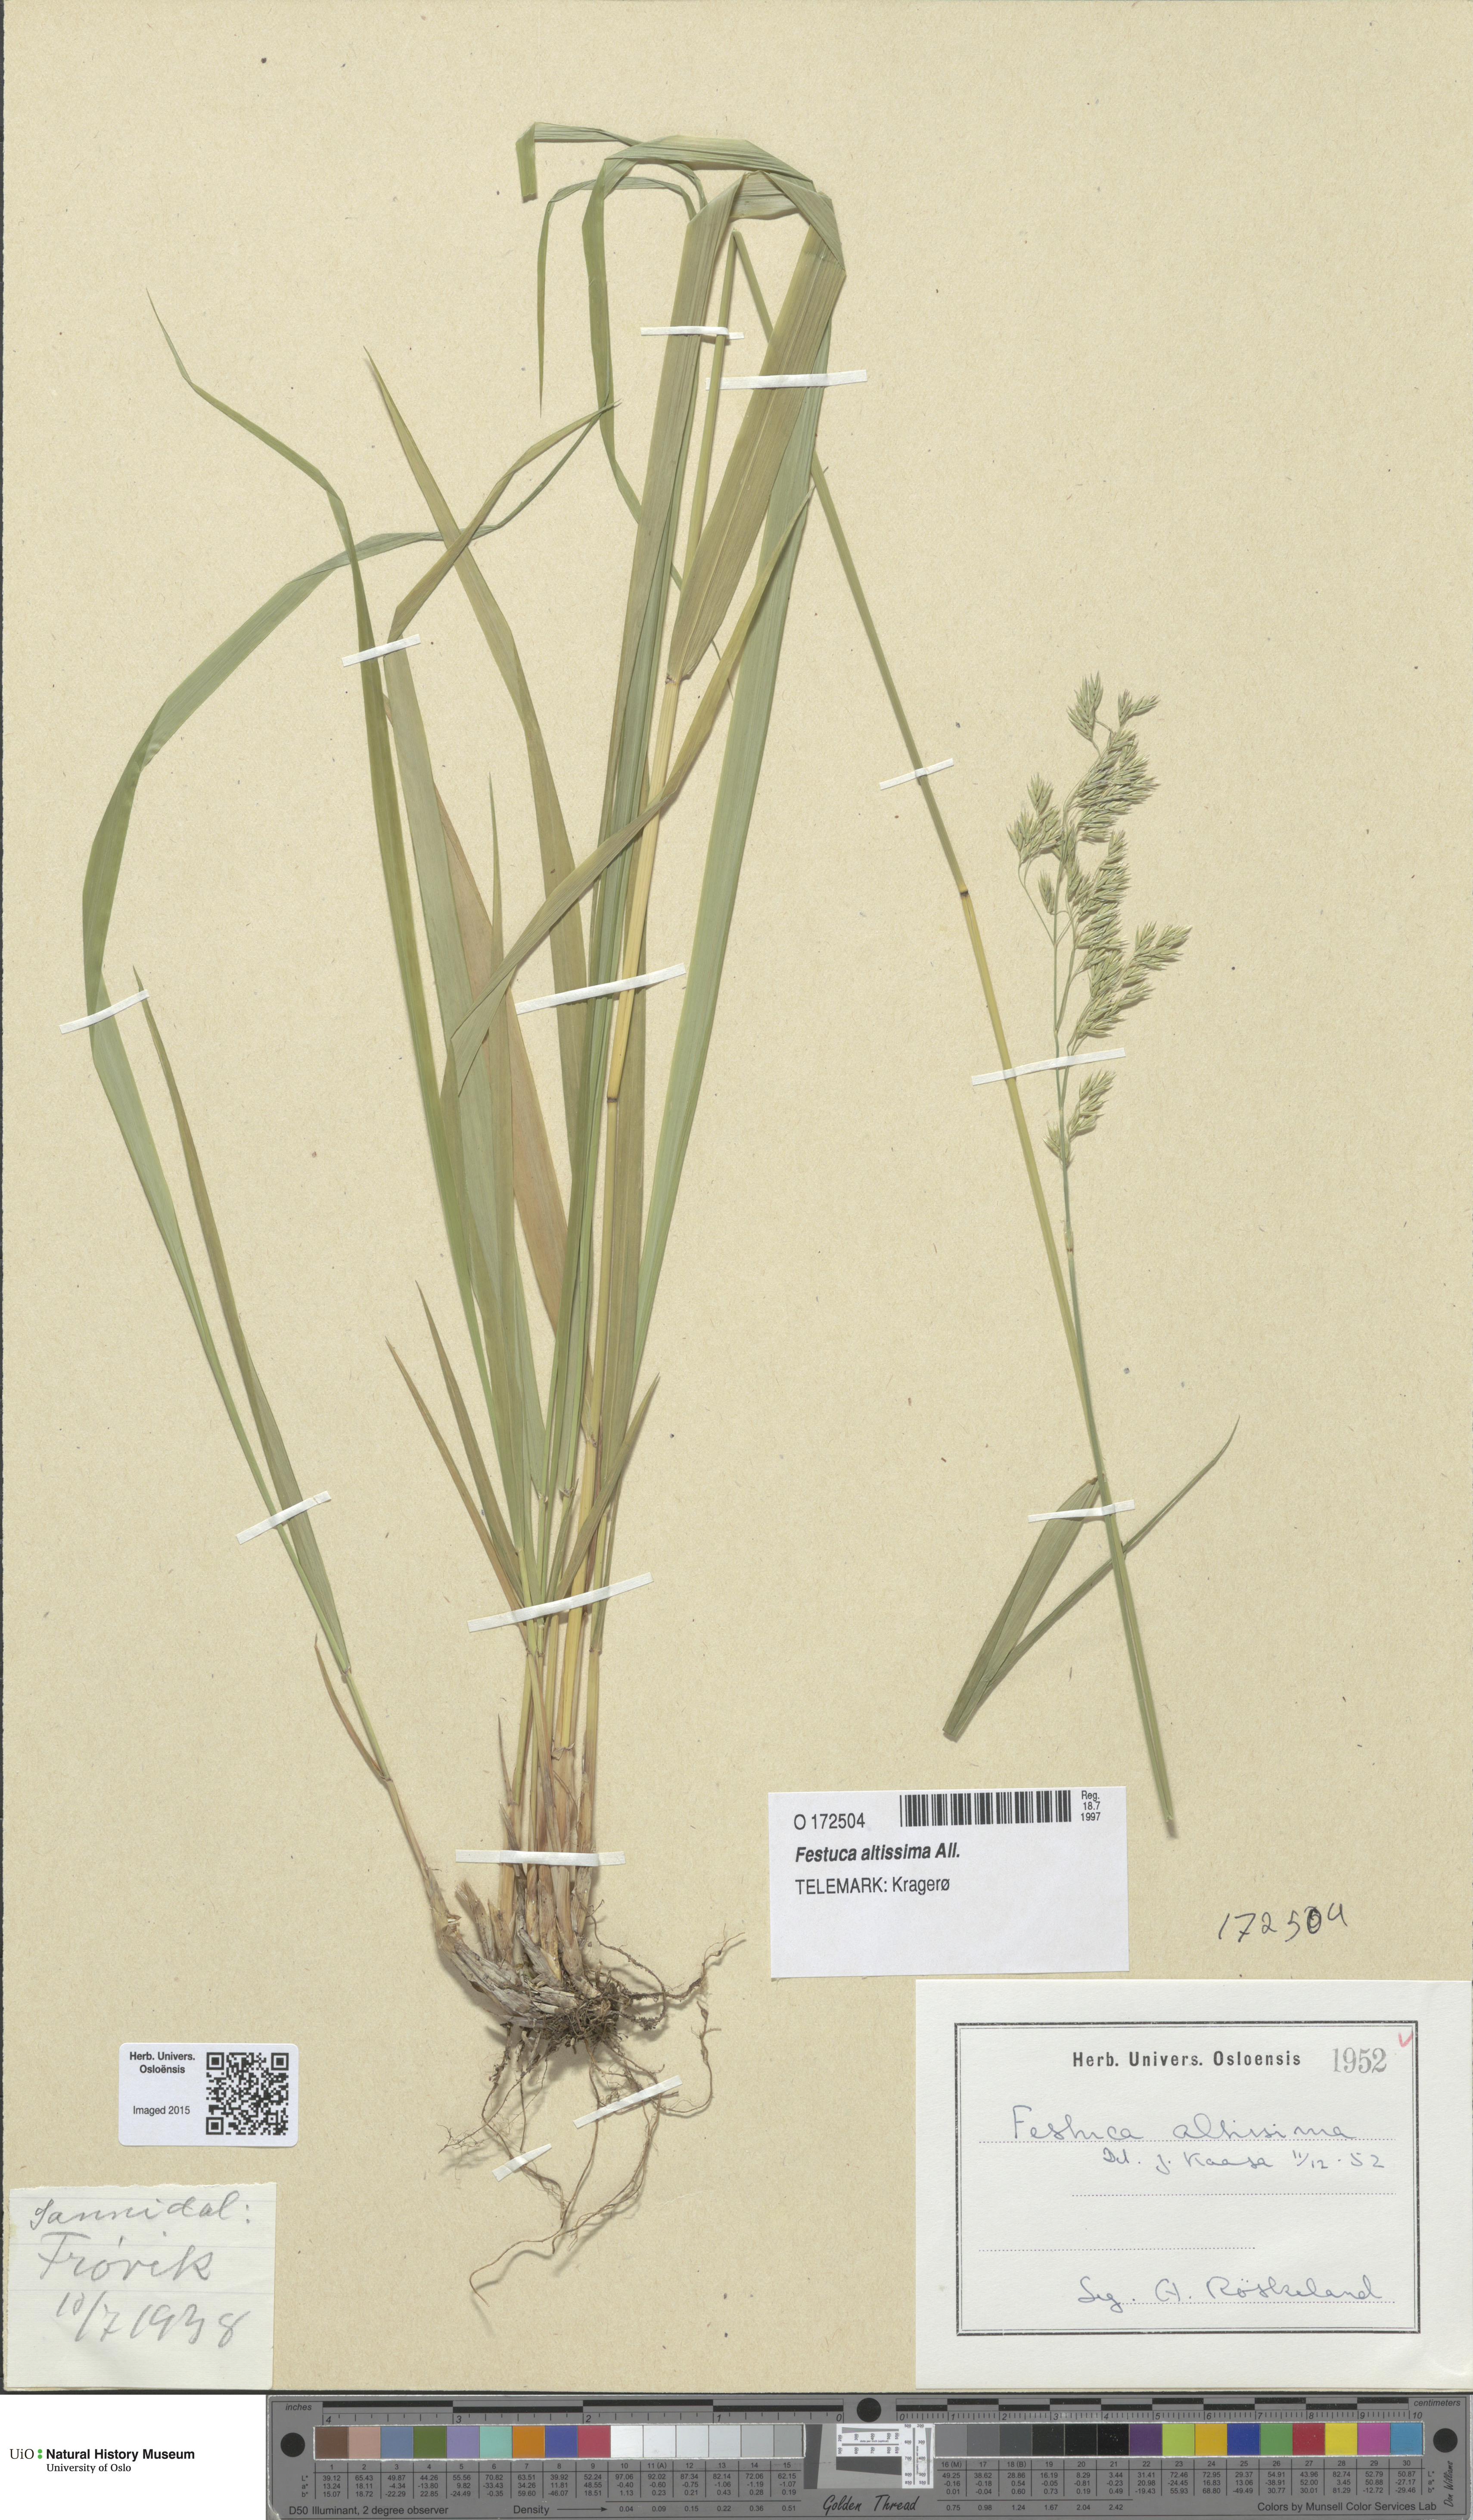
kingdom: Plantae
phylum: Tracheophyta
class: Liliopsida
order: Poales
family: Poaceae
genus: Festuca
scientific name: Festuca altissima
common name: Wood fescue
